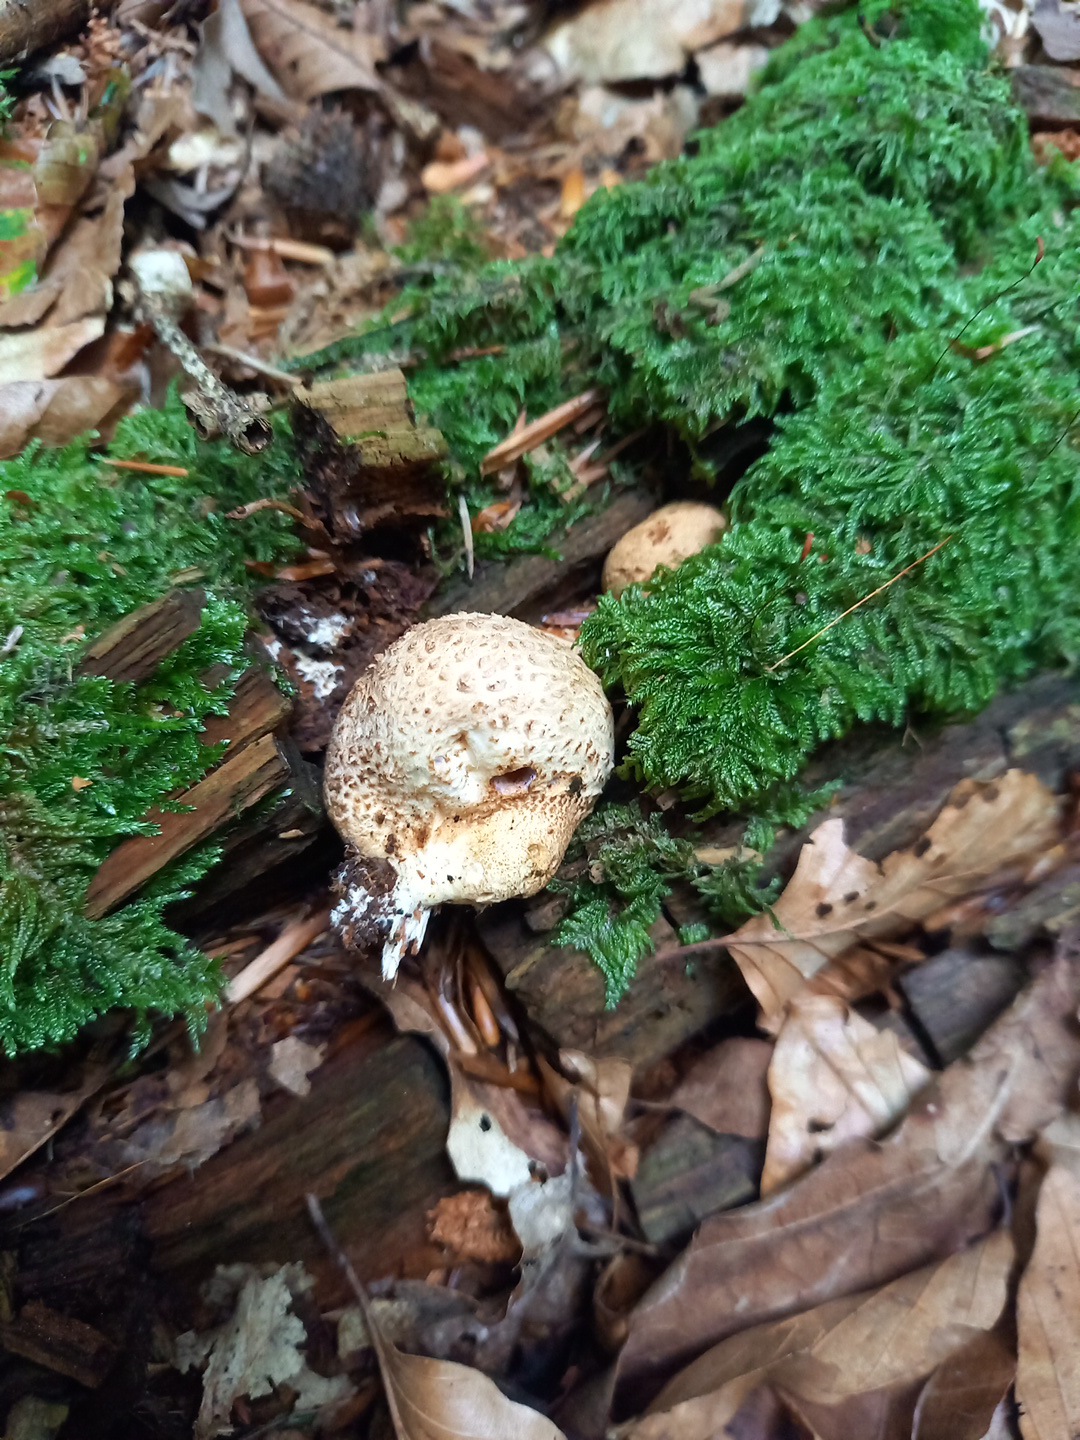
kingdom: Fungi
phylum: Basidiomycota
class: Agaricomycetes
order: Boletales
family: Sclerodermataceae
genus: Scleroderma
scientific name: Scleroderma citrinum
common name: almindelig bruskbold
